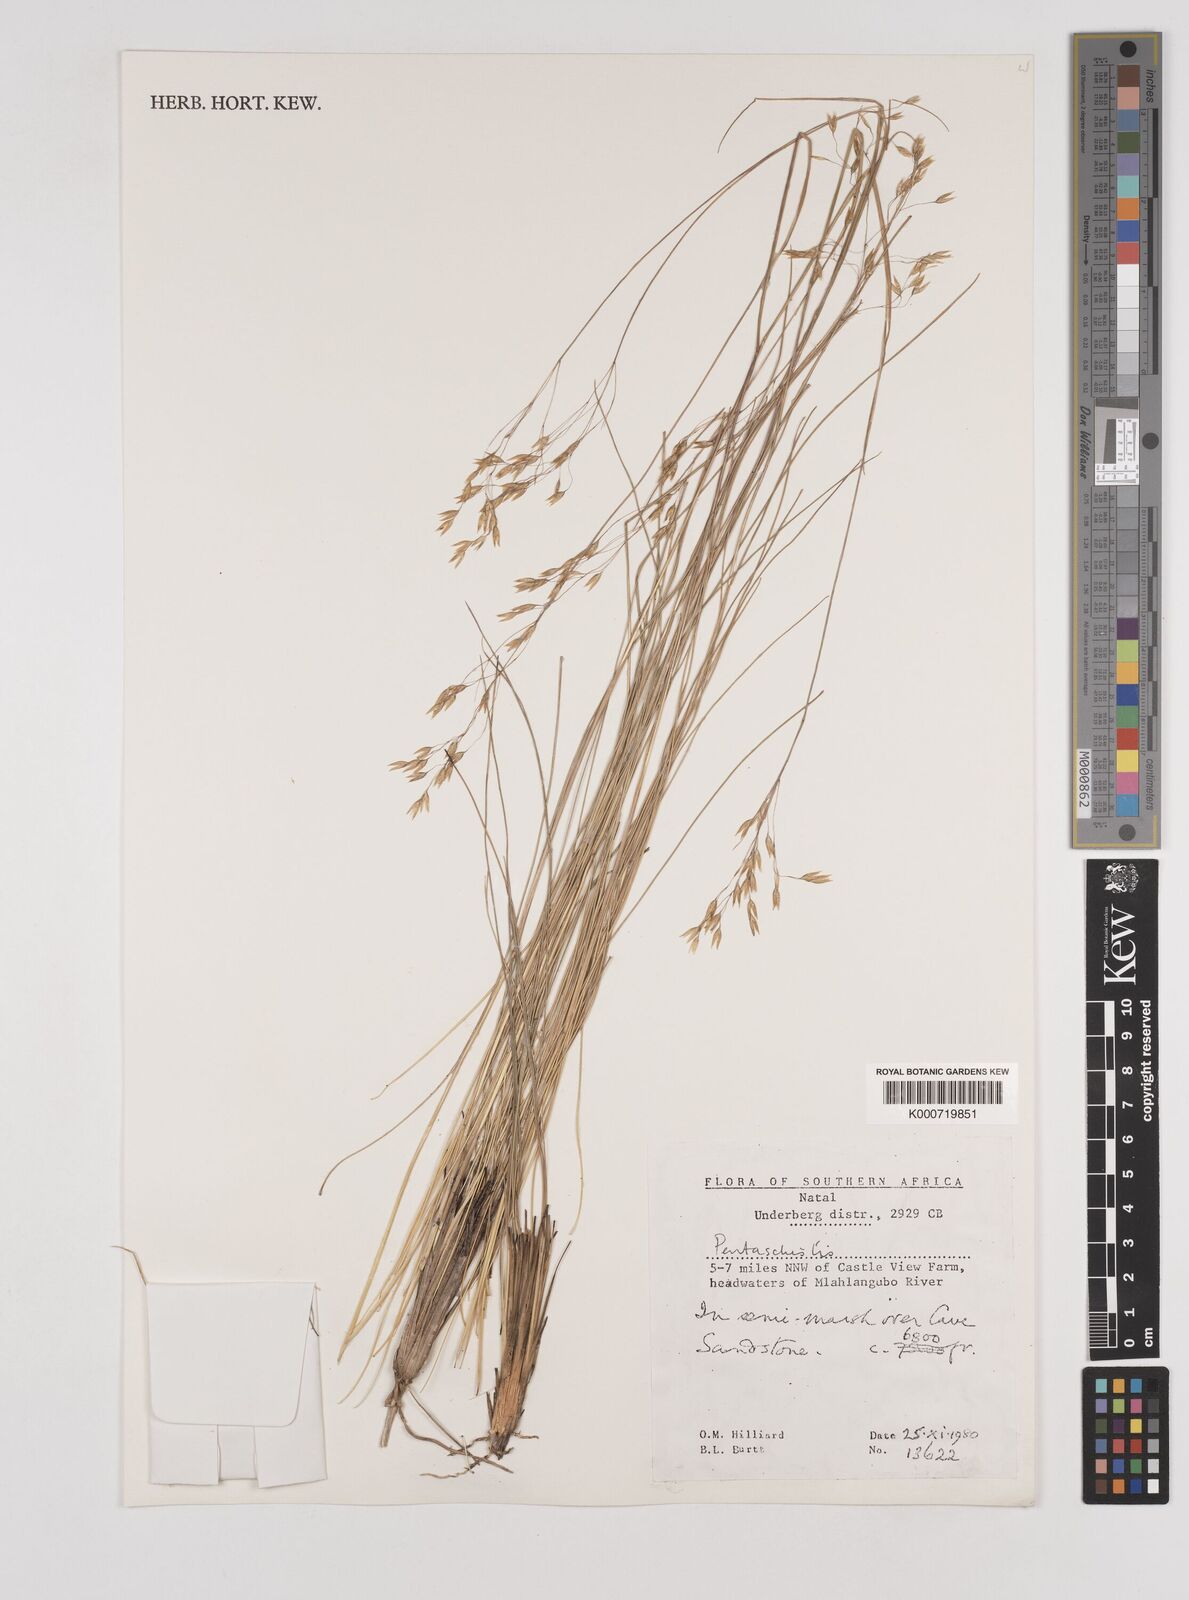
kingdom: Plantae
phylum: Tracheophyta
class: Liliopsida
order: Poales
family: Poaceae
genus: Pentaschistis
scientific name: Pentaschistis
